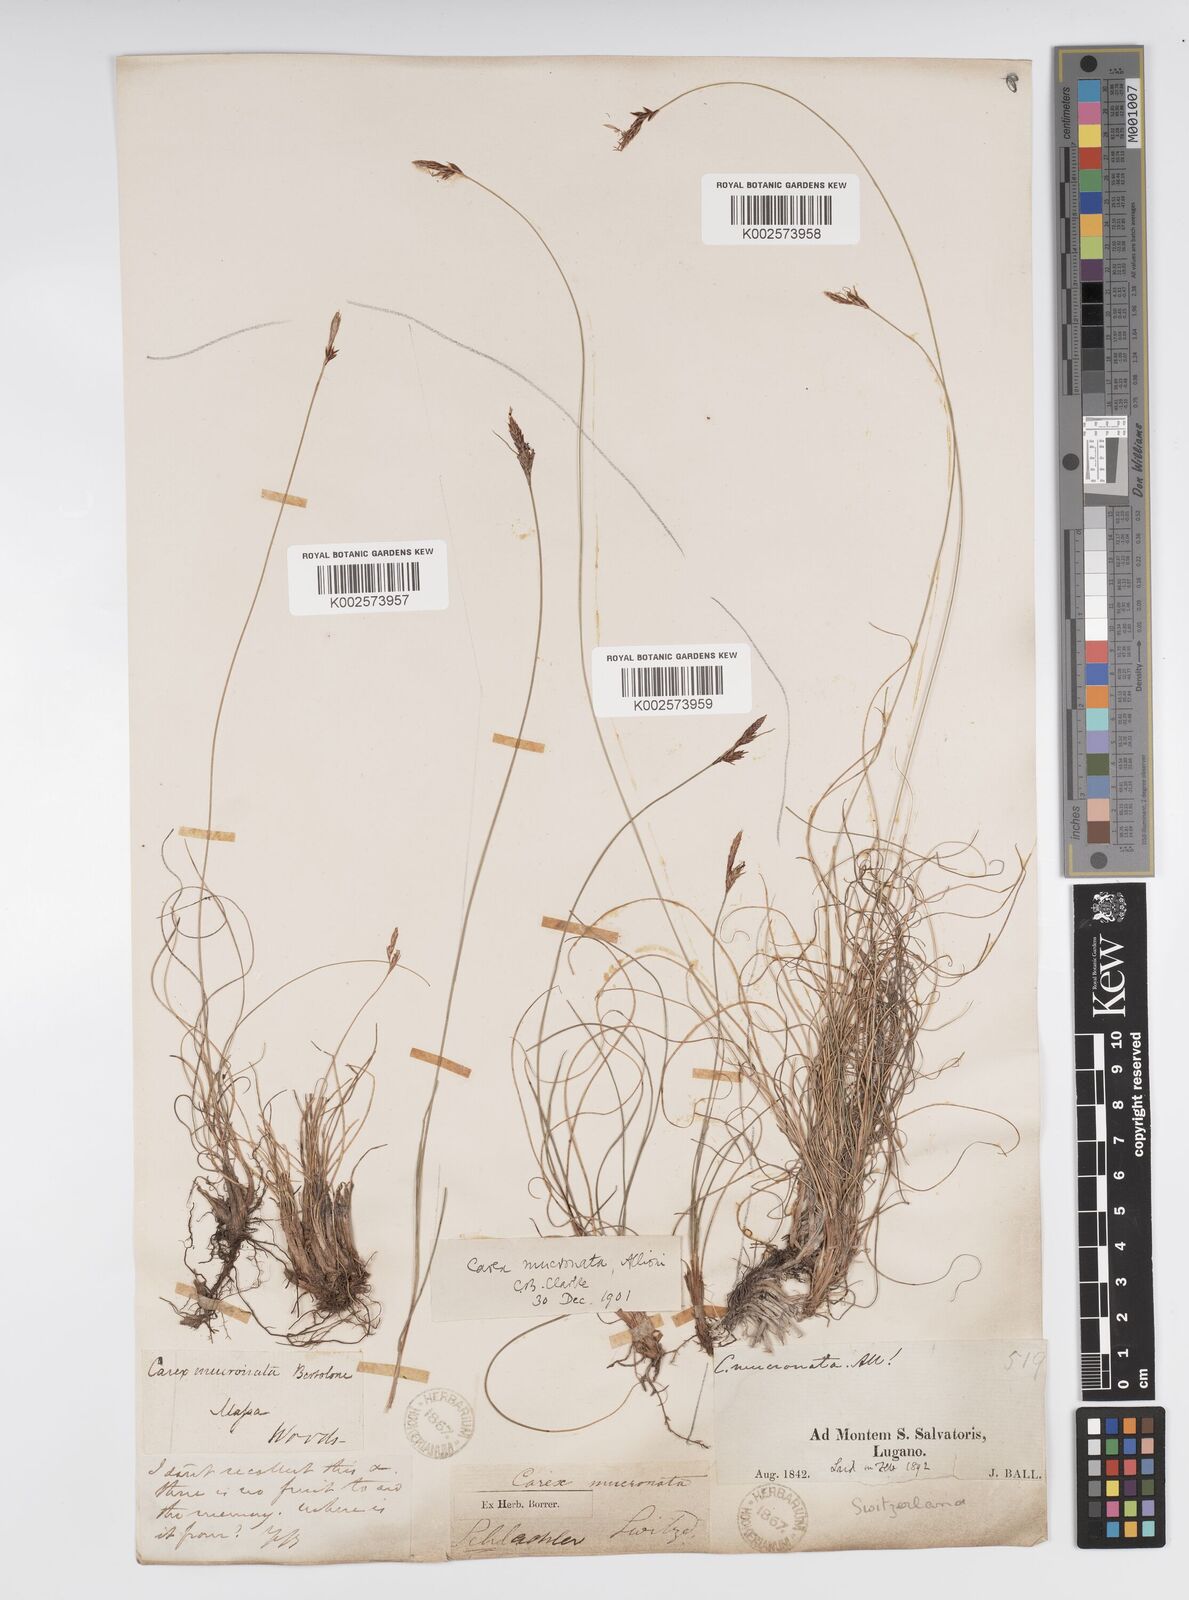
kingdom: Plantae
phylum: Tracheophyta
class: Liliopsida
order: Poales
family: Cyperaceae
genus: Carex
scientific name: Carex mucronata
